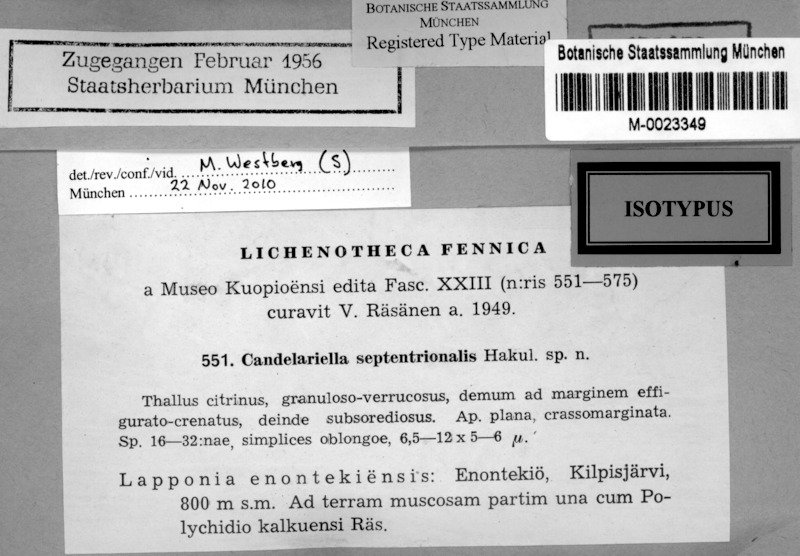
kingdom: Fungi
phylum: Ascomycota
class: Candelariomycetes
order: Candelariales
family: Candelariaceae
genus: Candelariella
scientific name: Candelariella placodizans
